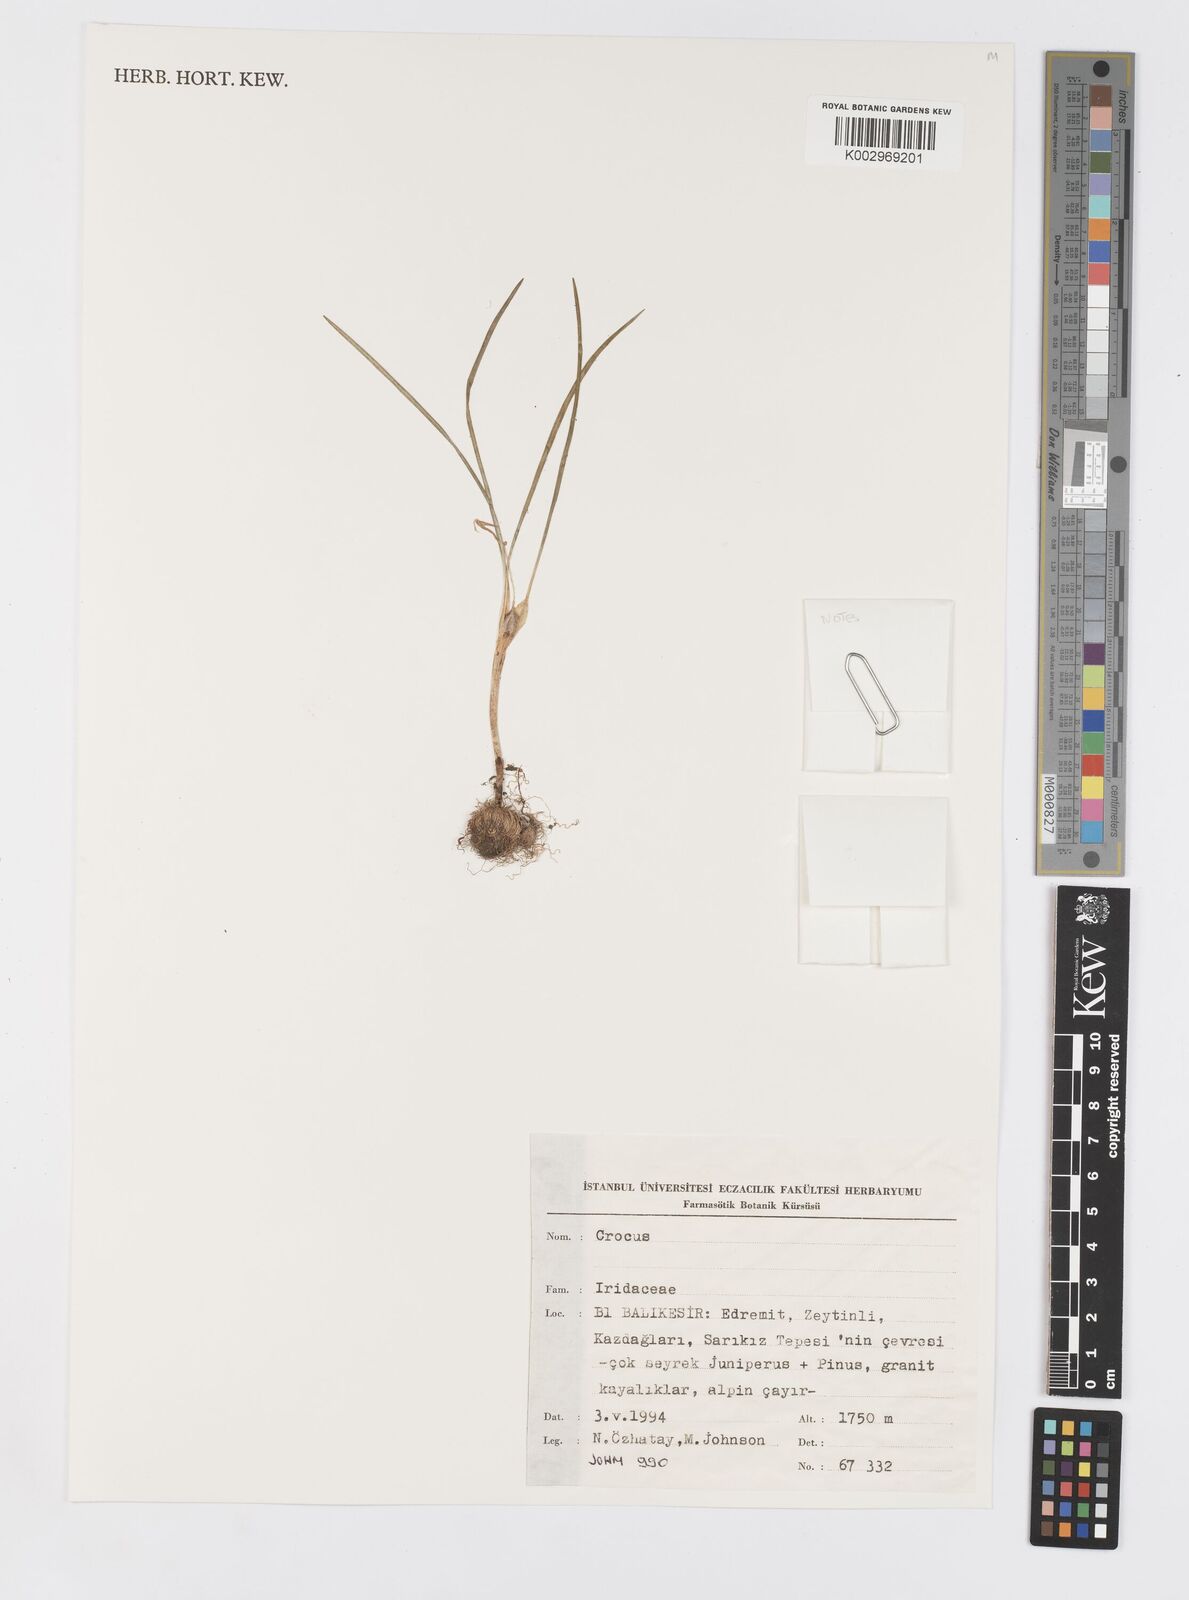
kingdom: Plantae
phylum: Tracheophyta
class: Liliopsida
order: Asparagales
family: Iridaceae
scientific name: Iridaceae
